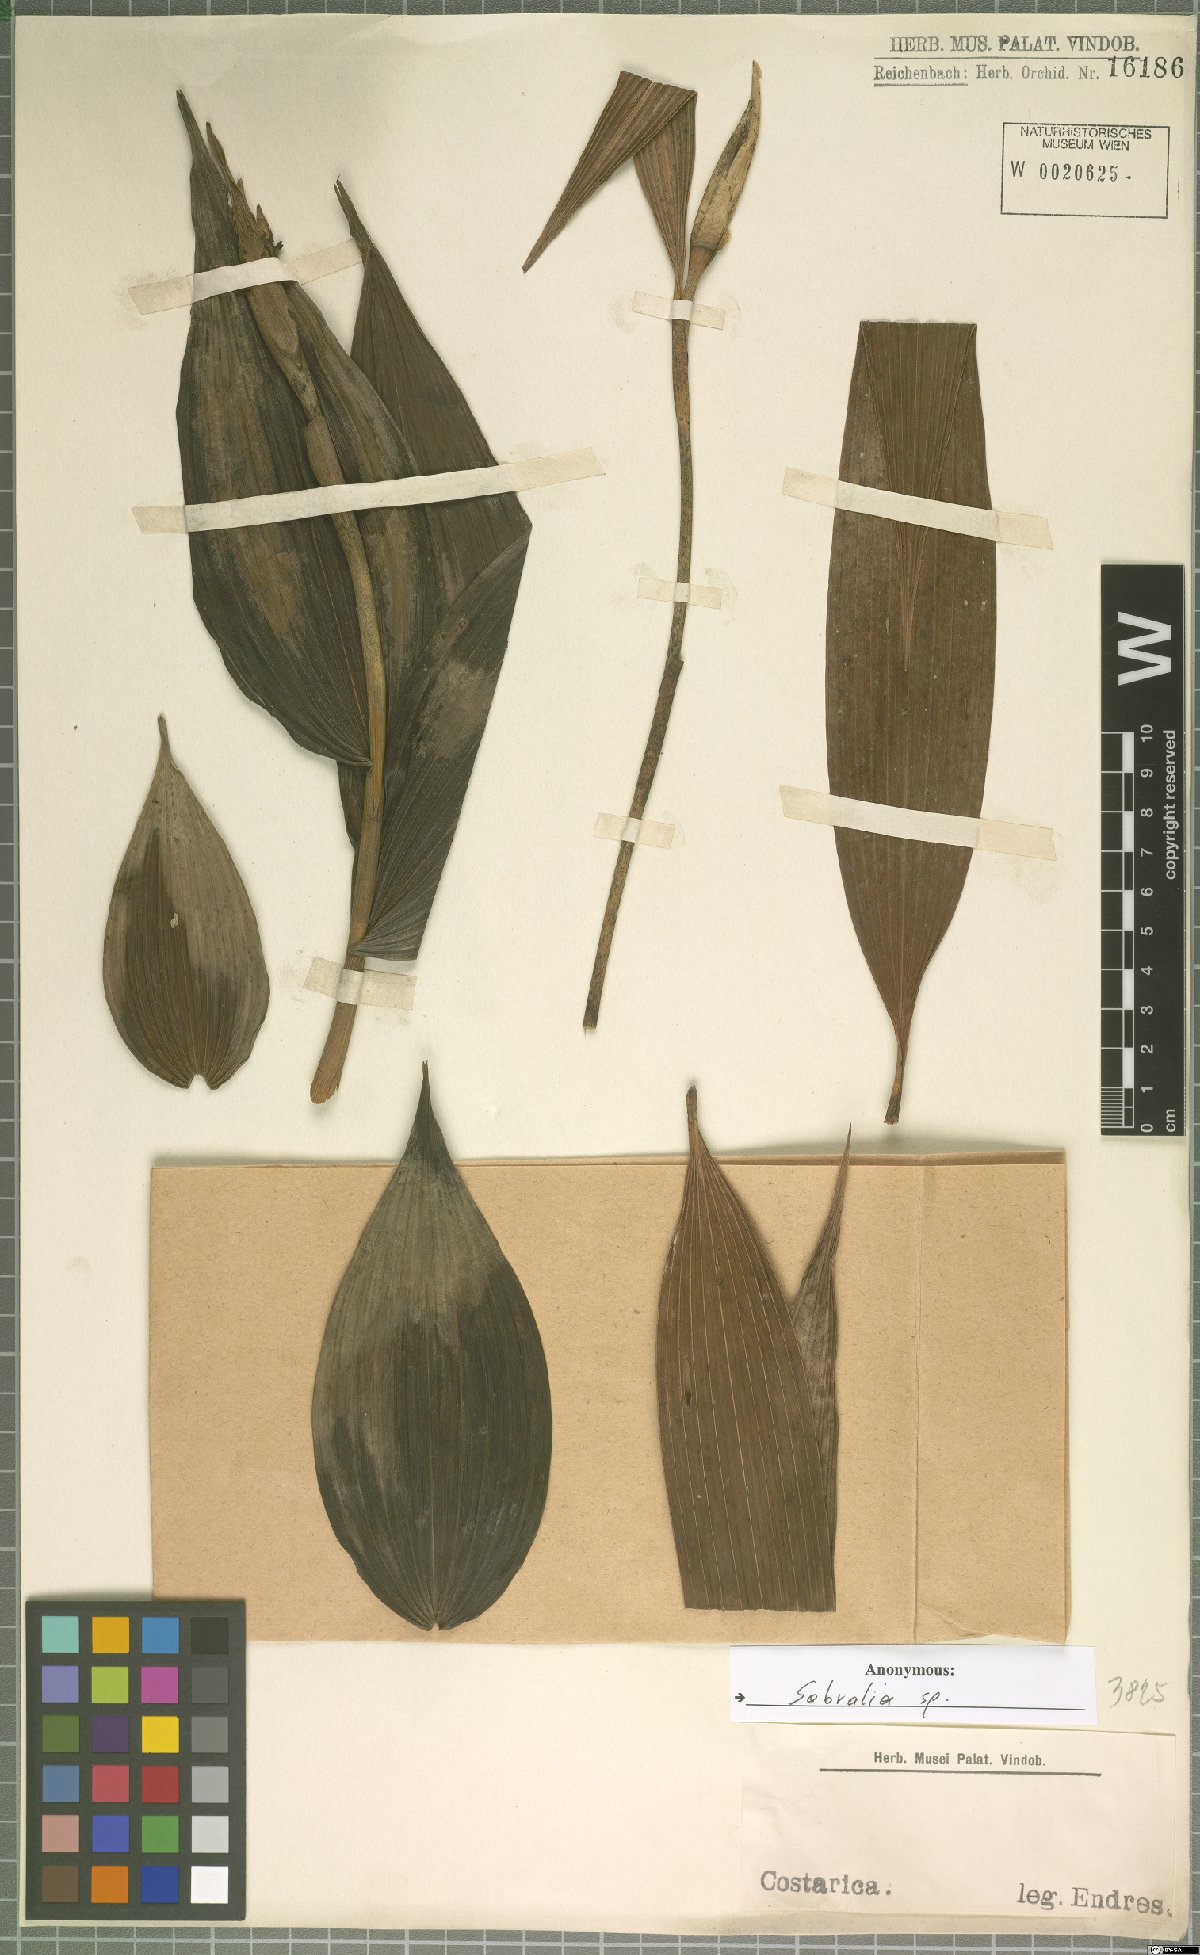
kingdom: Plantae
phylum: Tracheophyta
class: Liliopsida
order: Asparagales
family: Orchidaceae
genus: Sobralia
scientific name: Sobralia
